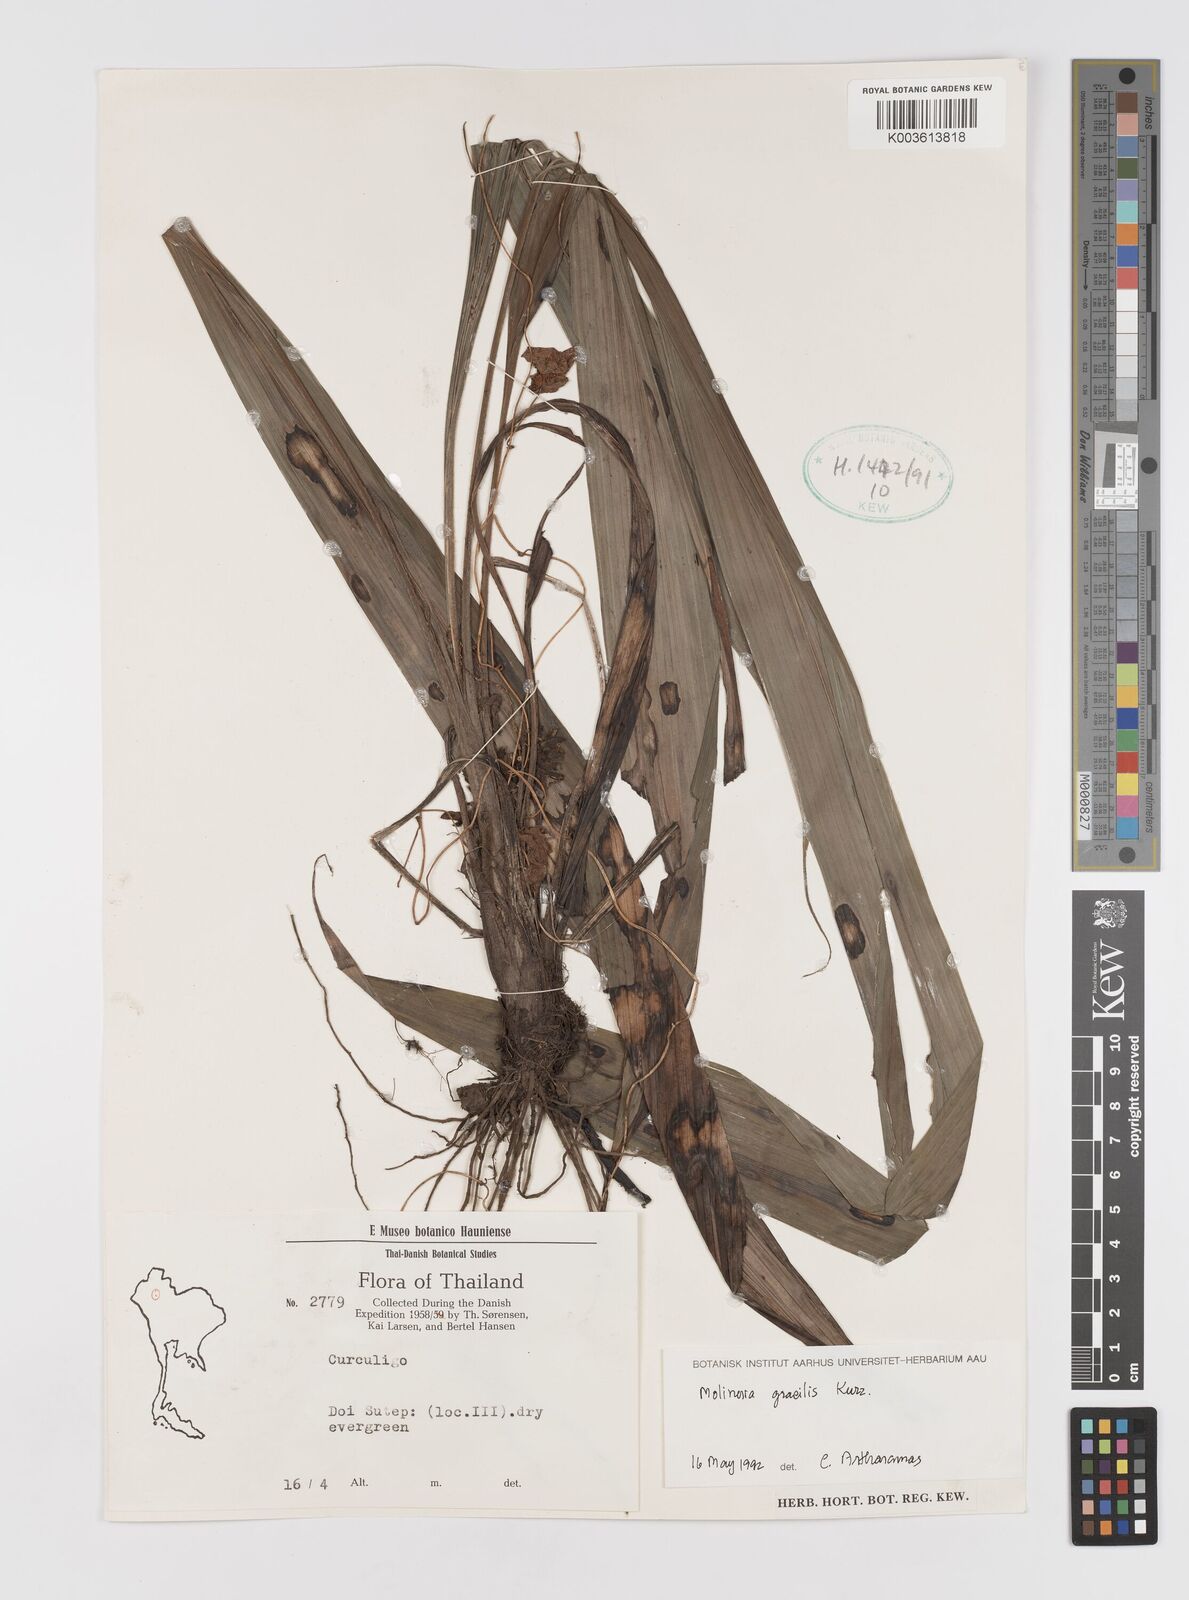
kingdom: Plantae
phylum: Tracheophyta
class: Liliopsida
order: Asparagales
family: Hypoxidaceae
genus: Curculigo
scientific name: Curculigo gracilis
